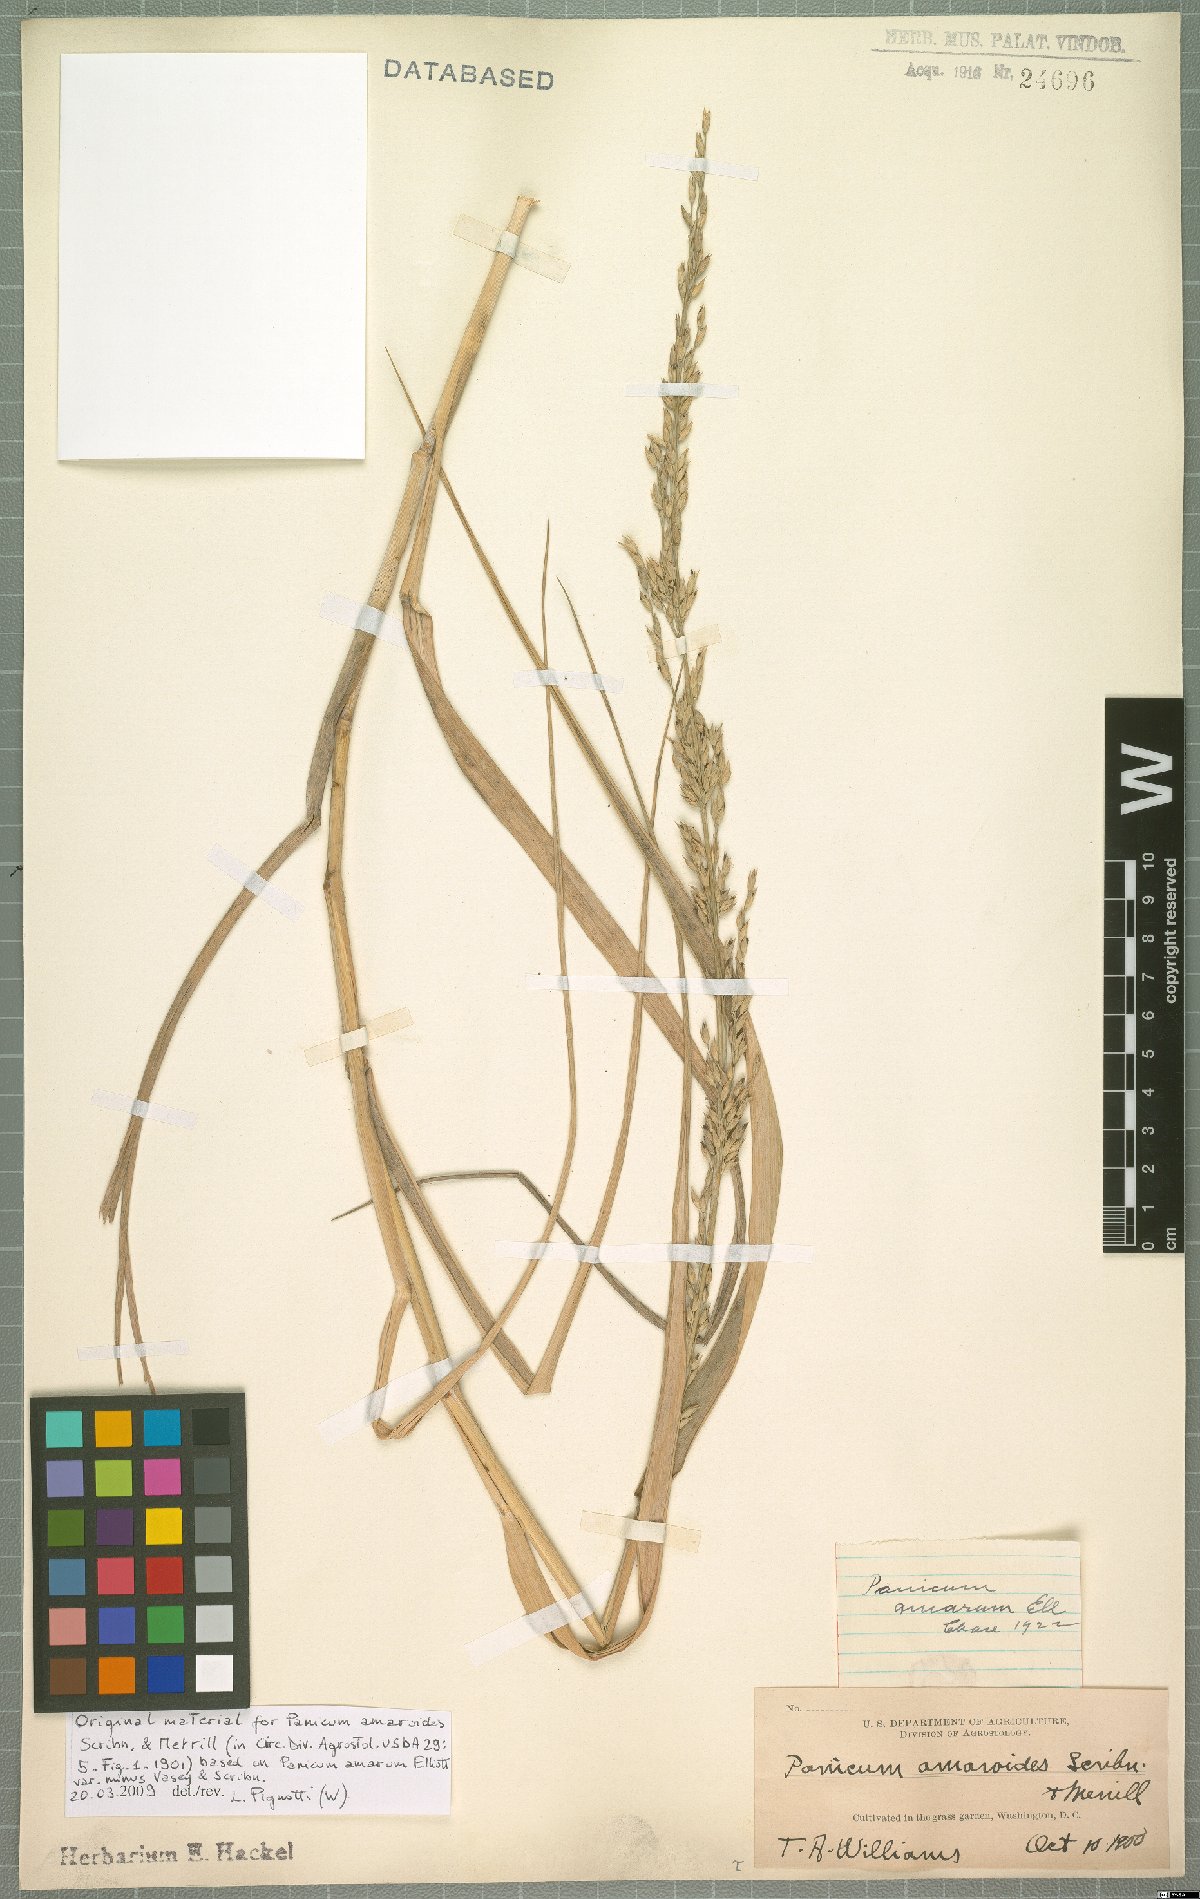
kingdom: Plantae
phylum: Tracheophyta
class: Liliopsida
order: Poales
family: Poaceae
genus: Panicum
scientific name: Panicum amarum
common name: Bitter panicum
